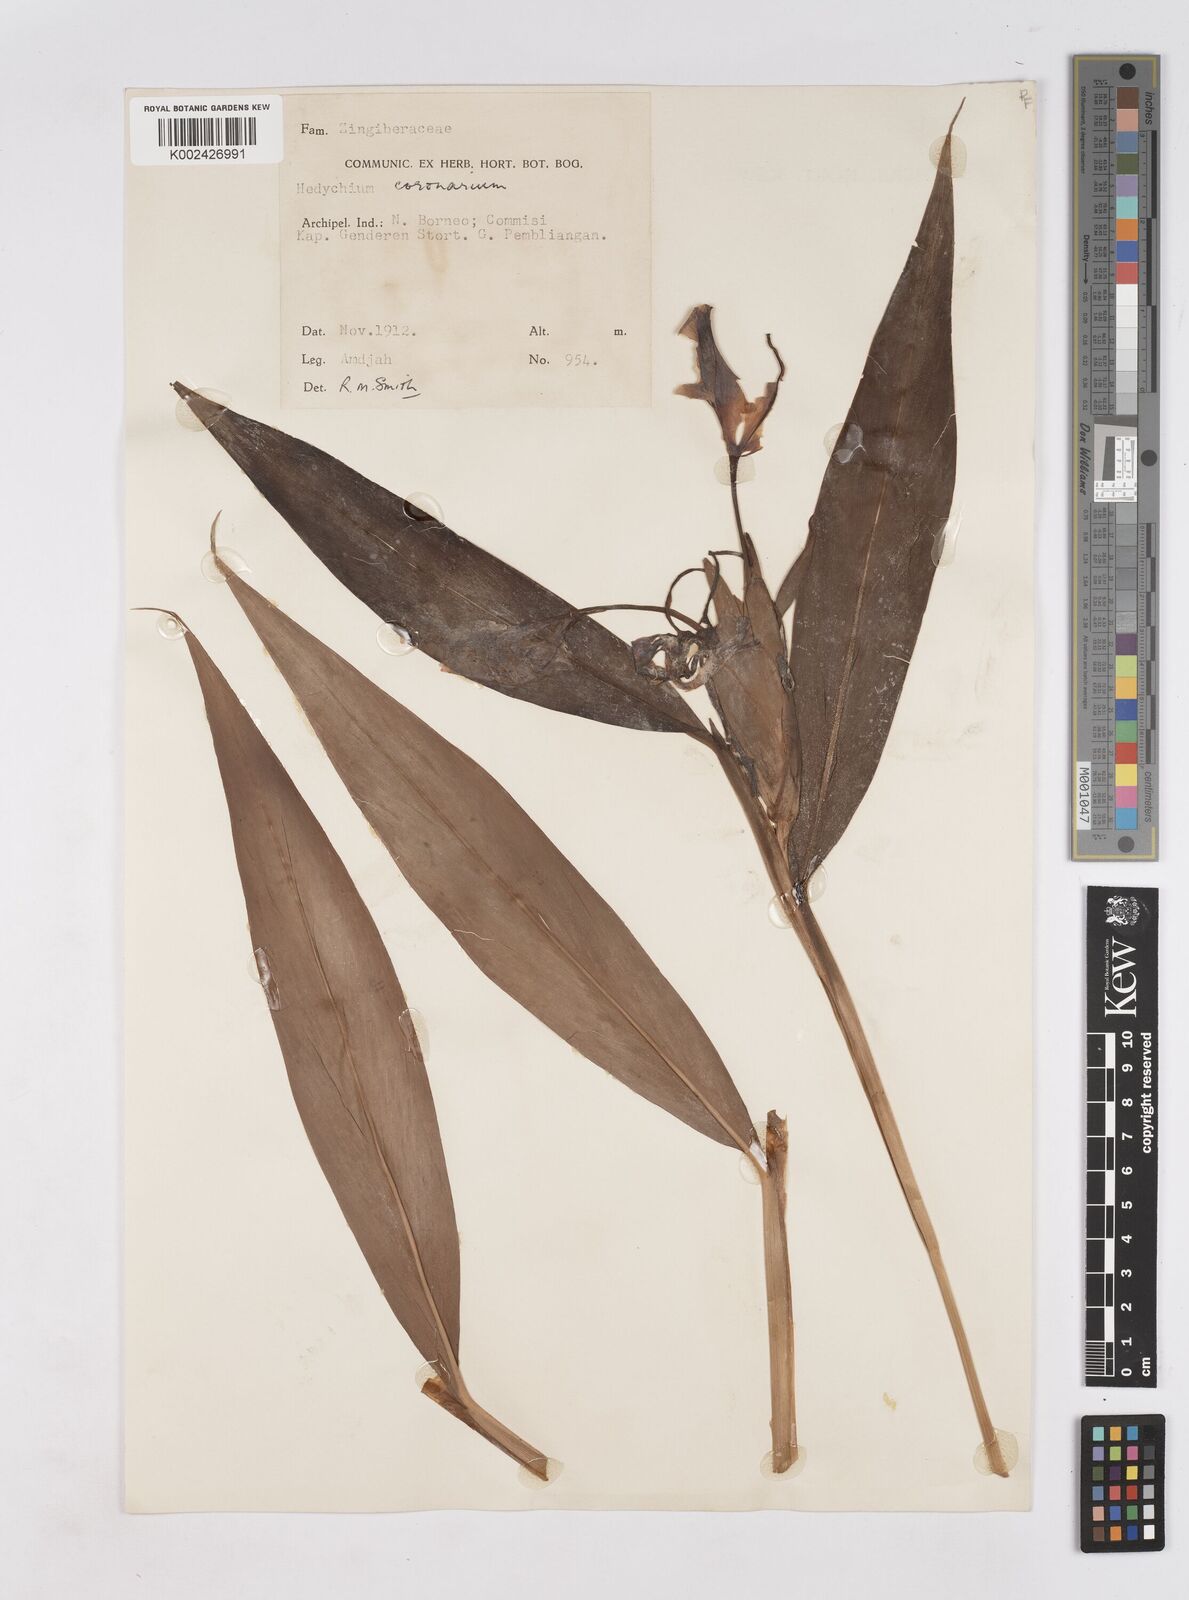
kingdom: Plantae
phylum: Tracheophyta
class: Liliopsida
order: Zingiberales
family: Zingiberaceae
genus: Hedychium
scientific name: Hedychium coronarium
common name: White garland-lily
